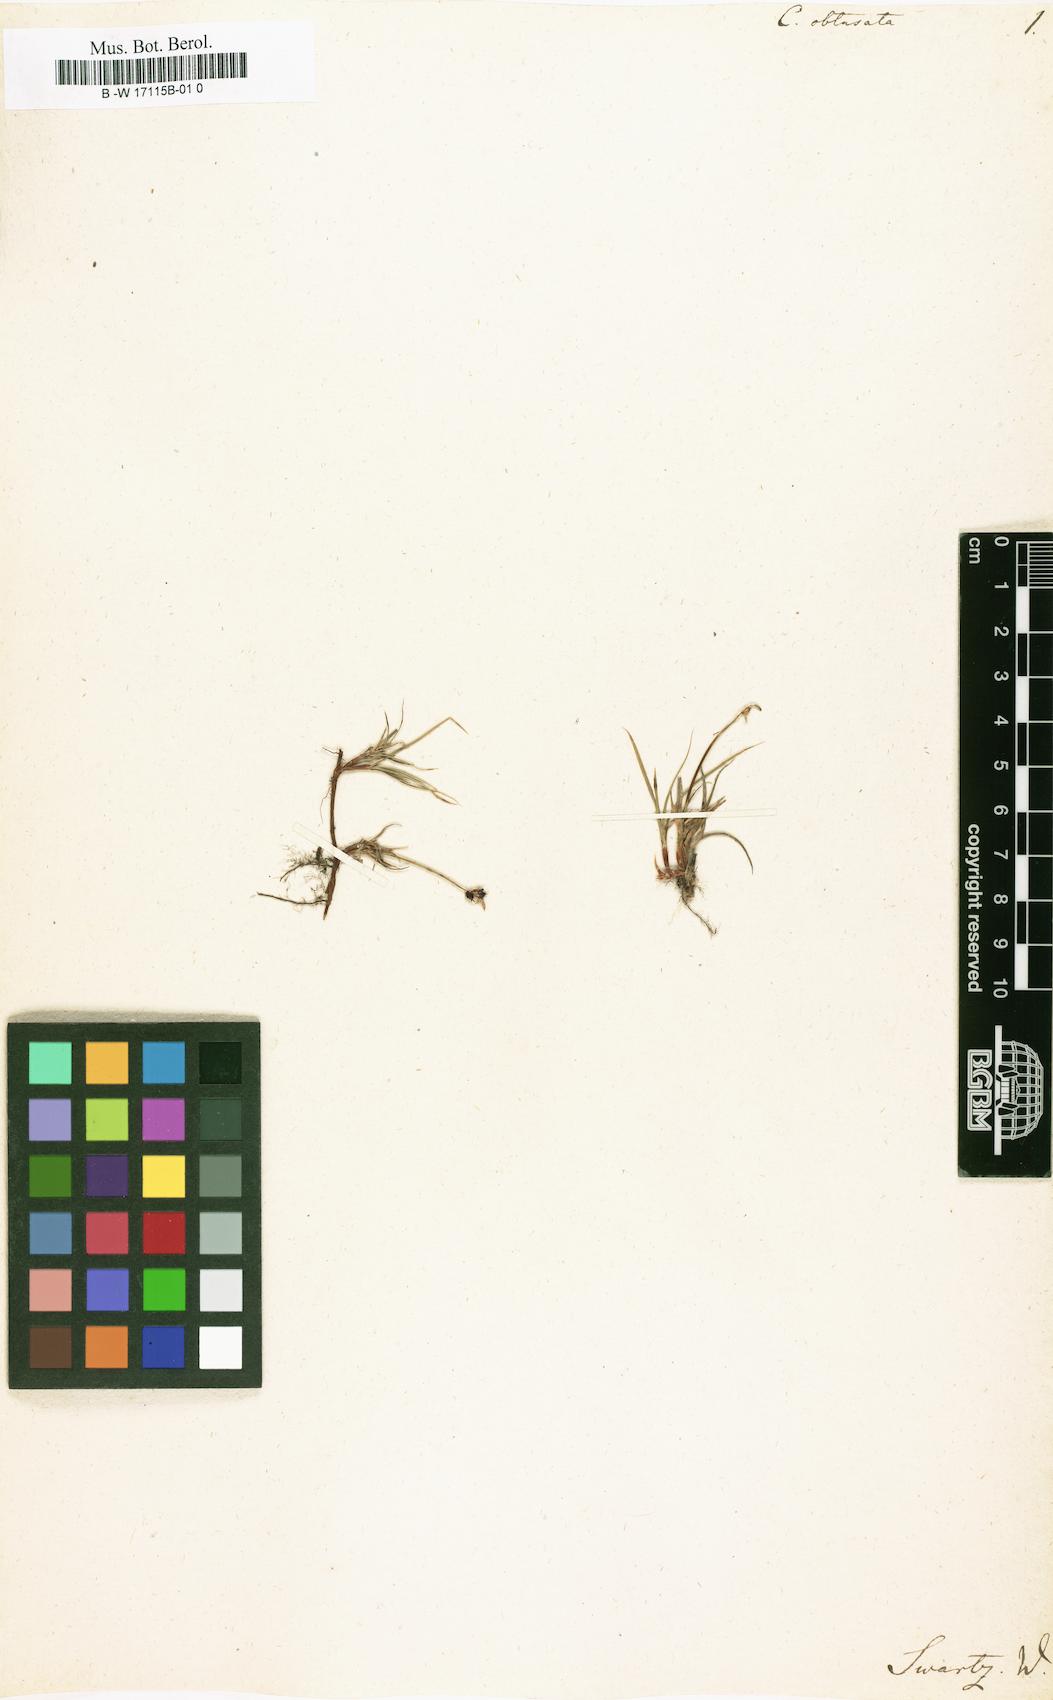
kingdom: Plantae
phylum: Tracheophyta
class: Liliopsida
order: Poales
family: Cyperaceae
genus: Carex
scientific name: Carex obtusata
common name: Blunt sedge
